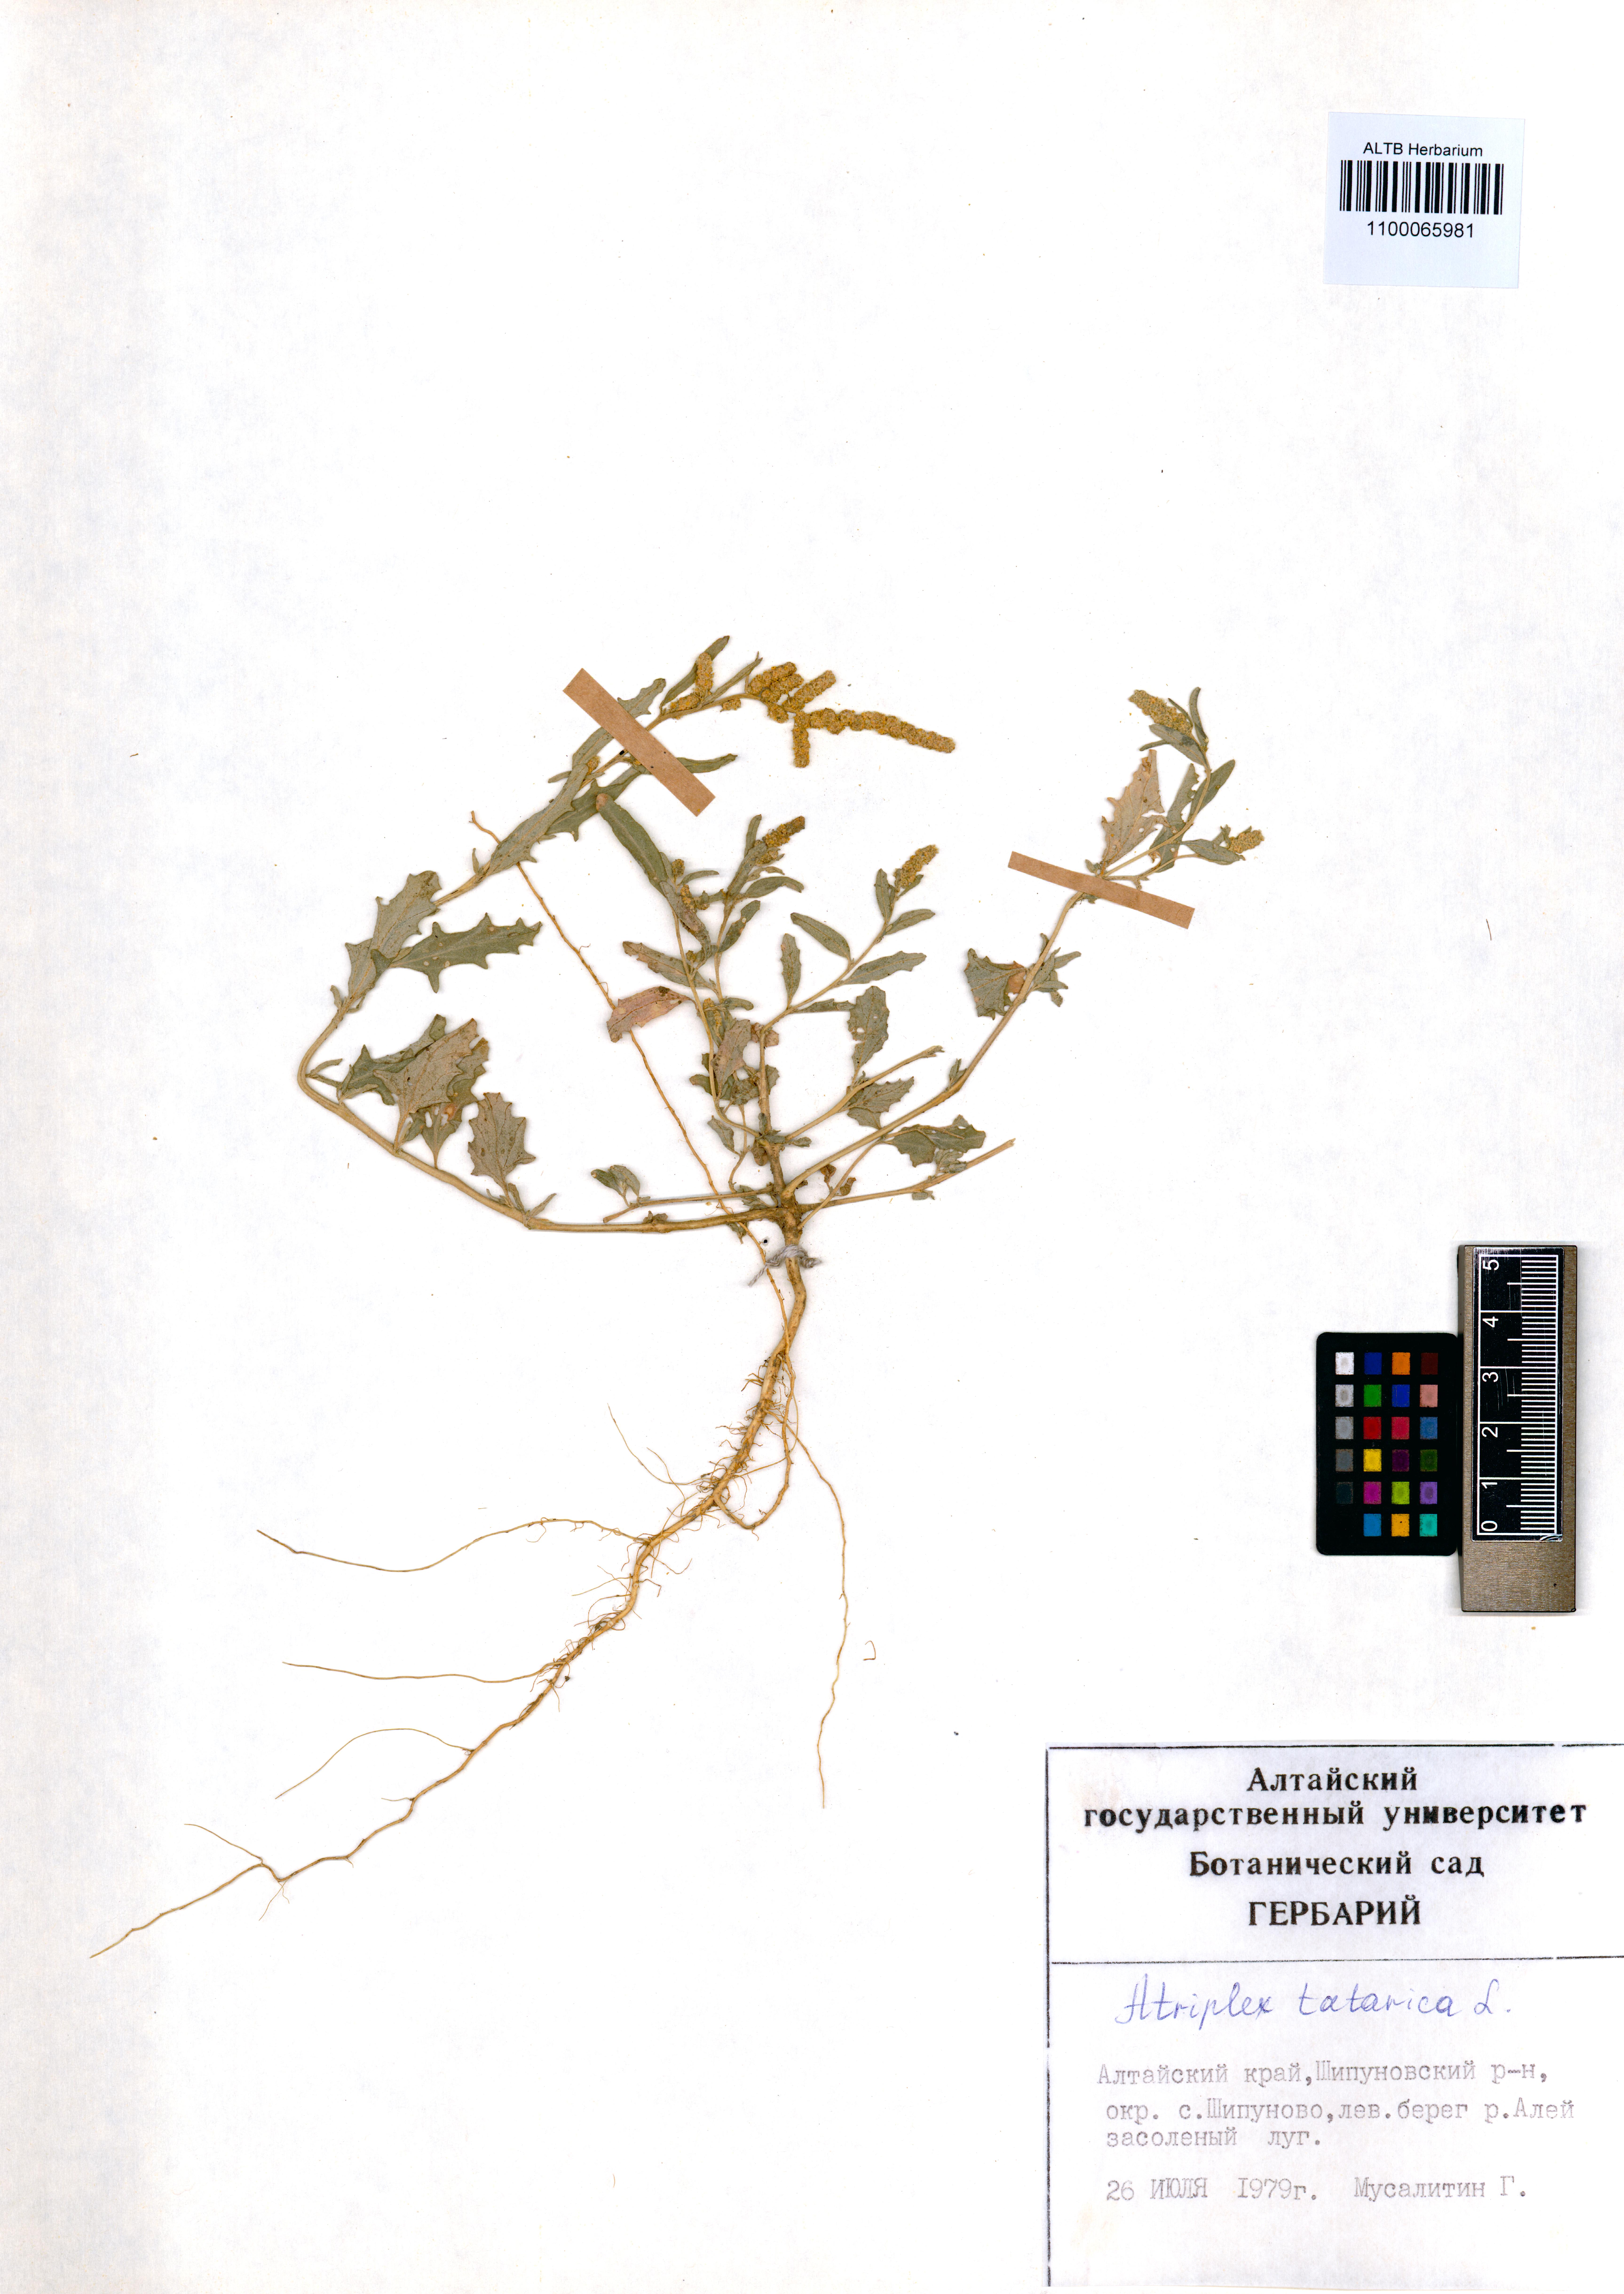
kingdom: Plantae
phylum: Tracheophyta
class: Magnoliopsida
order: Caryophyllales
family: Amaranthaceae
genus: Atriplex
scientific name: Atriplex tatarica
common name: Tatarian orache
